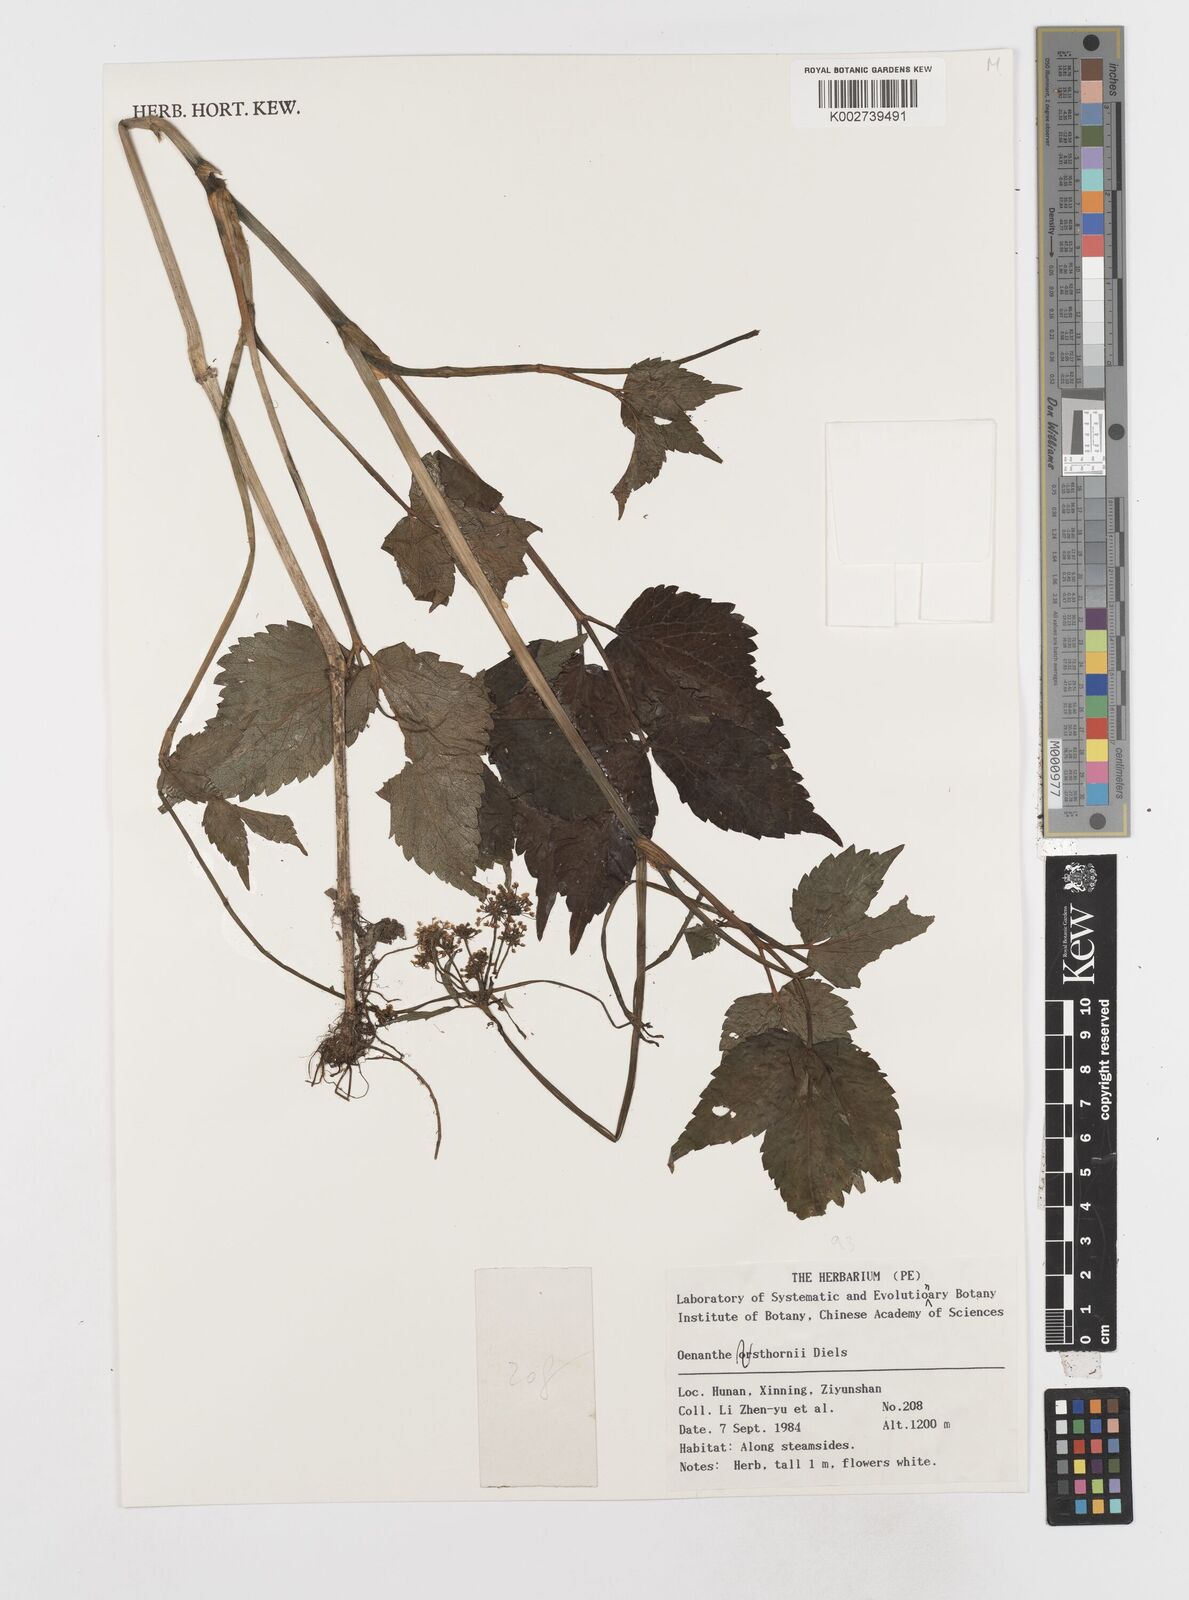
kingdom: Plantae
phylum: Tracheophyta
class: Magnoliopsida
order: Apiales
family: Apiaceae
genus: Oenanthe
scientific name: Oenanthe javanica
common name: Java water-dropwort
